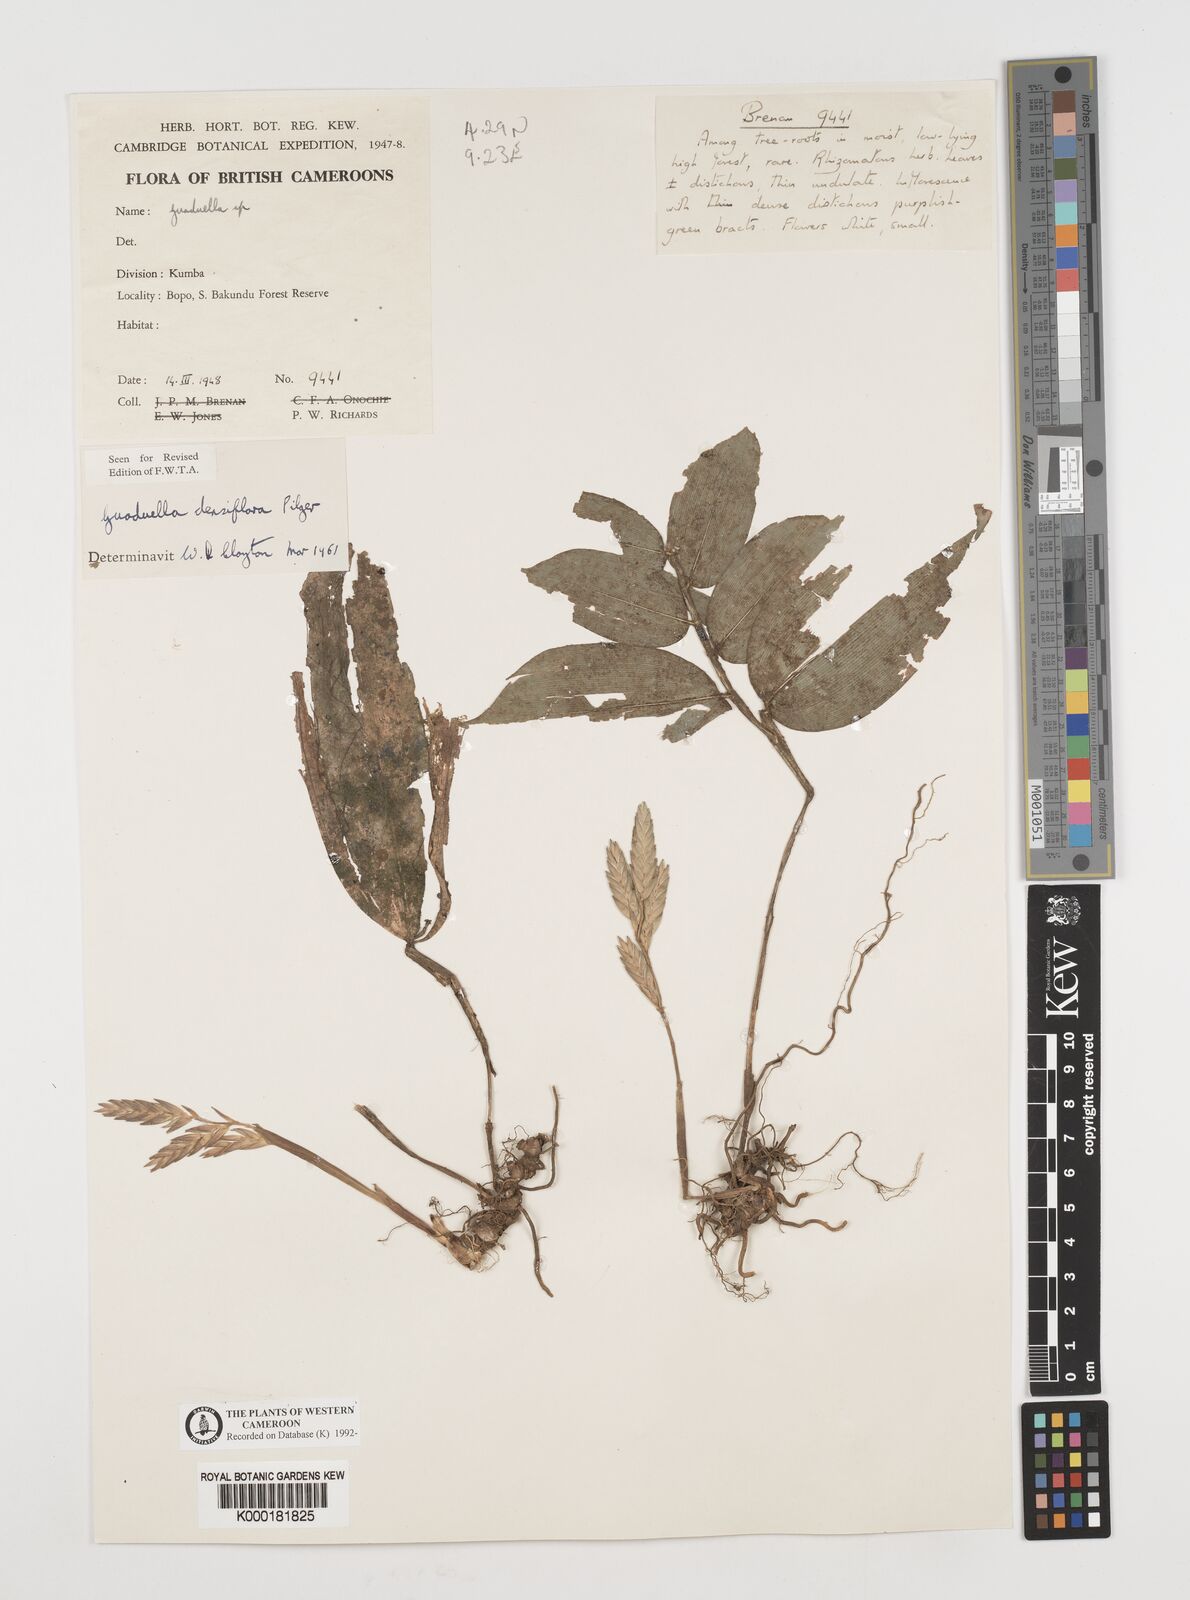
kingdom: Plantae
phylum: Tracheophyta
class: Liliopsida
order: Poales
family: Poaceae
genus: Guaduella
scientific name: Guaduella densiflora
